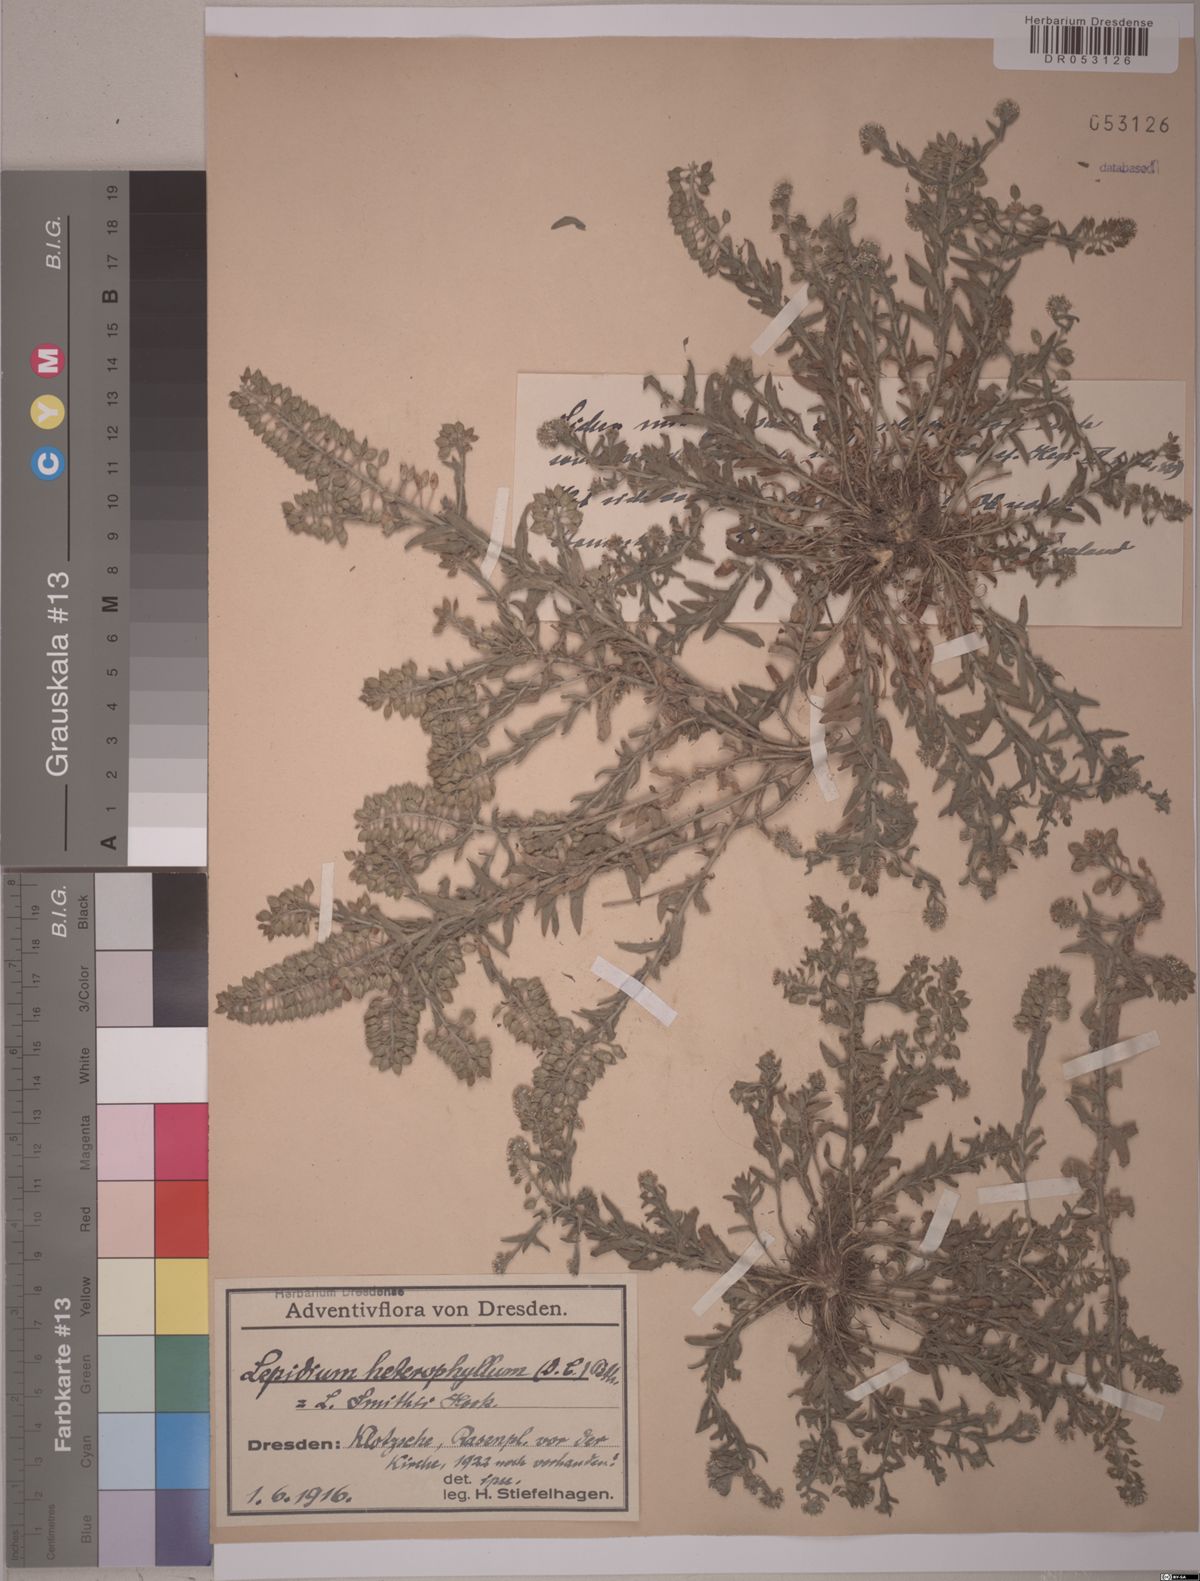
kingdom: Plantae
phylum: Tracheophyta
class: Magnoliopsida
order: Brassicales
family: Brassicaceae
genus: Lepidium
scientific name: Lepidium heterophyllum
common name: Smith's pepperwort
